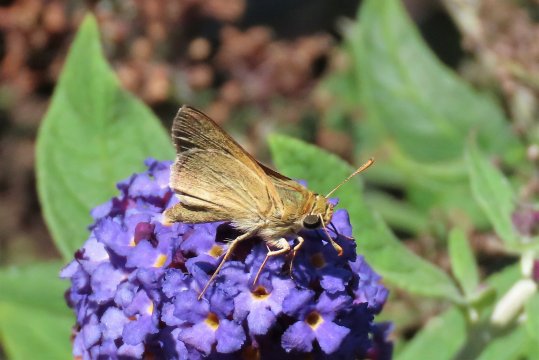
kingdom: Animalia
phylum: Arthropoda
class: Insecta
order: Lepidoptera
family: Hesperiidae
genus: Polites
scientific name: Polites
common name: Crossline Skipper
